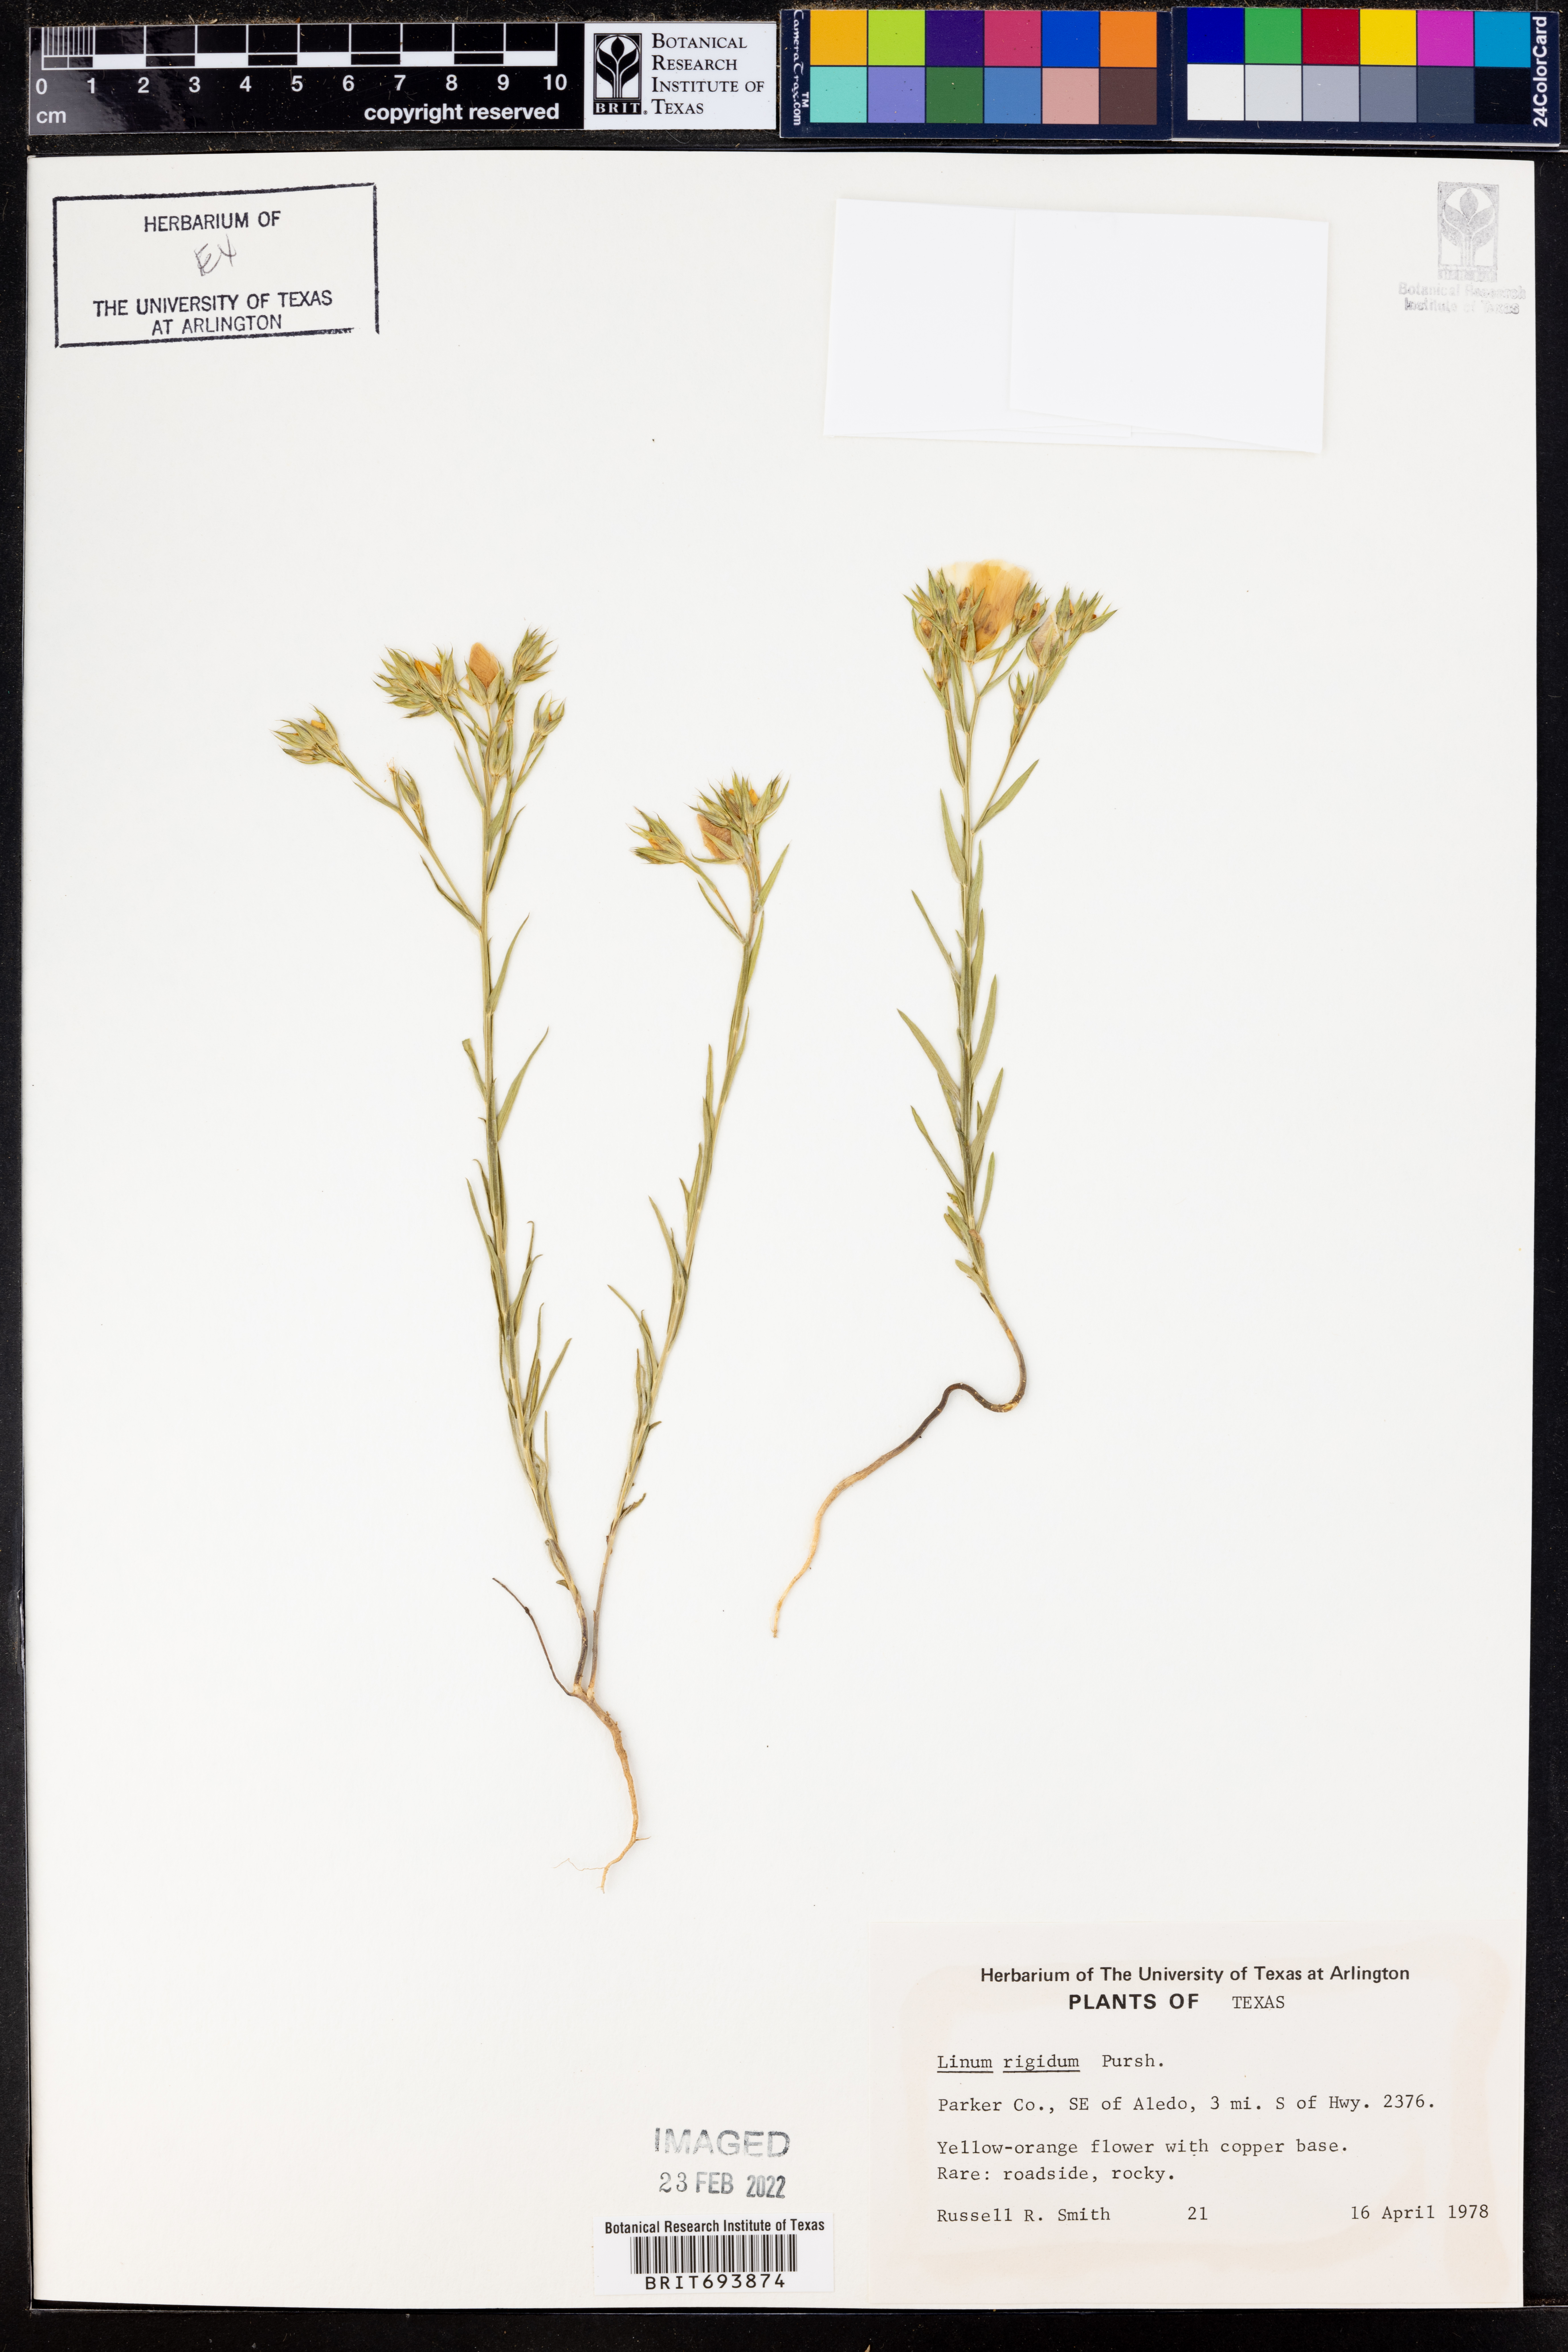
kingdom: Plantae
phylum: Tracheophyta
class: Magnoliopsida
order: Malpighiales
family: Linaceae
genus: Linum
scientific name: Linum rigidum
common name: Stiff-stem flax
